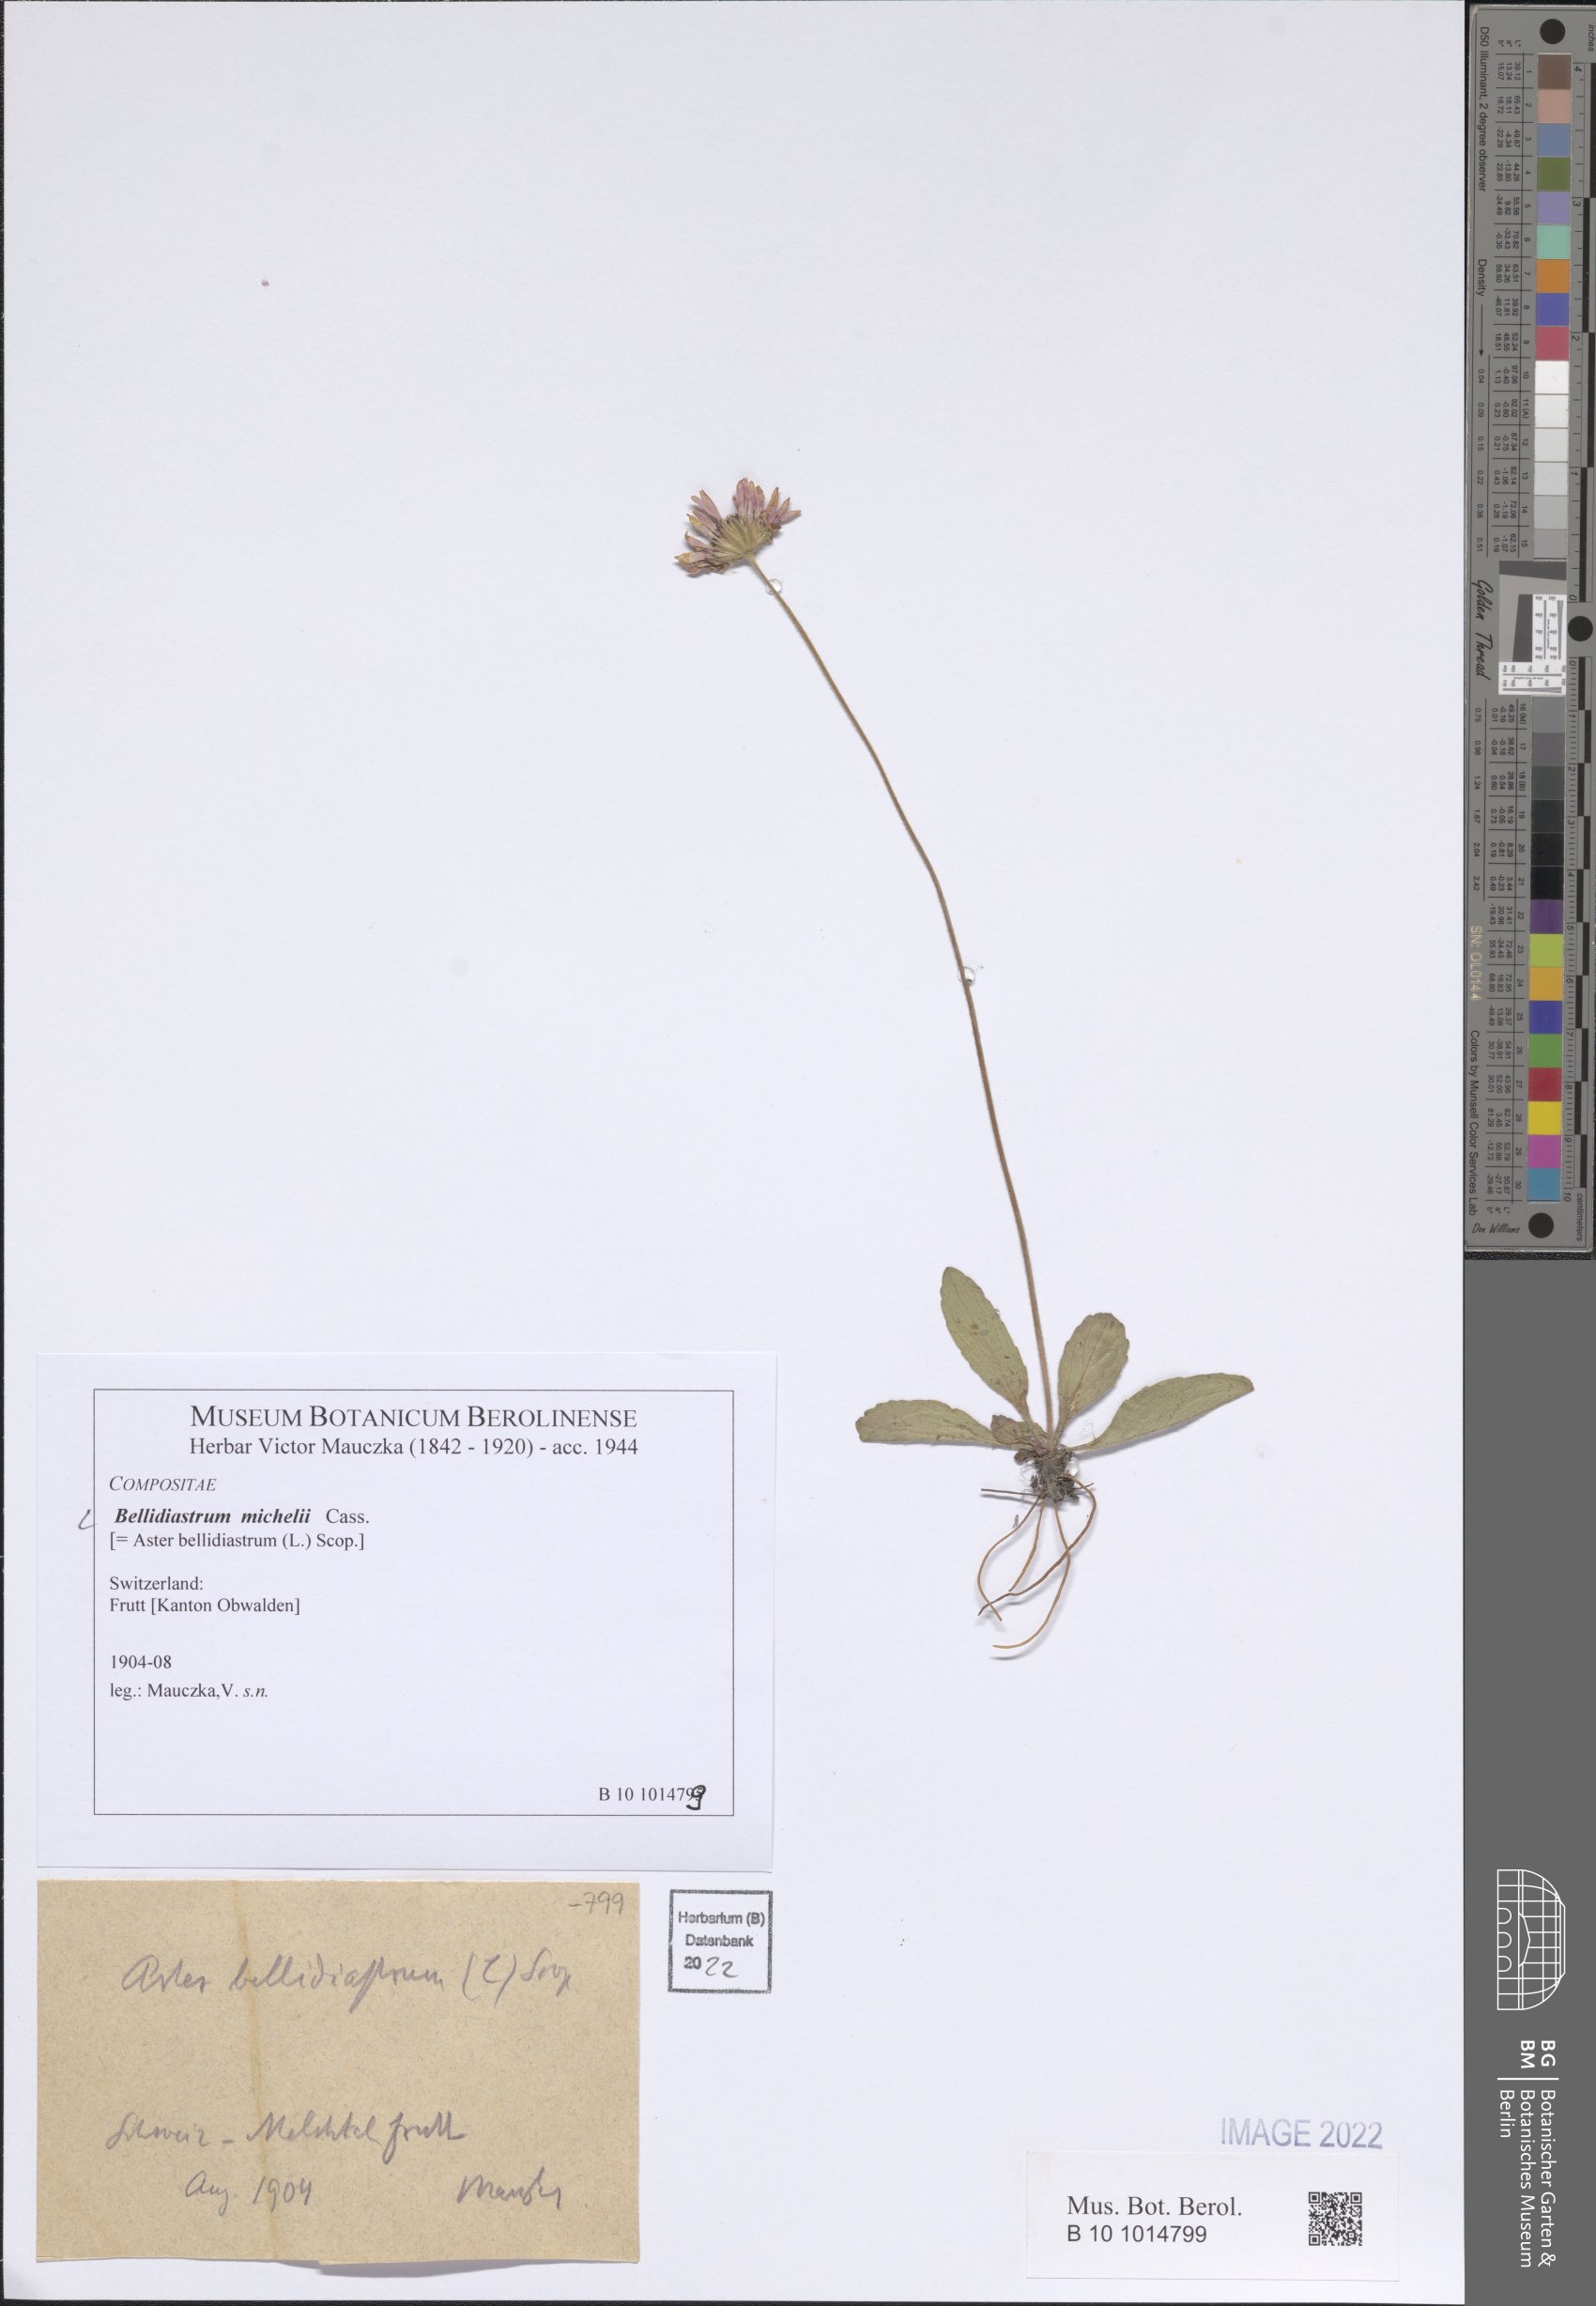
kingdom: Plantae
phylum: Tracheophyta
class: Magnoliopsida
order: Asterales
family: Asteraceae
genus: Bellidiastrum
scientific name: Bellidiastrum michelii
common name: Daisy-star aster
